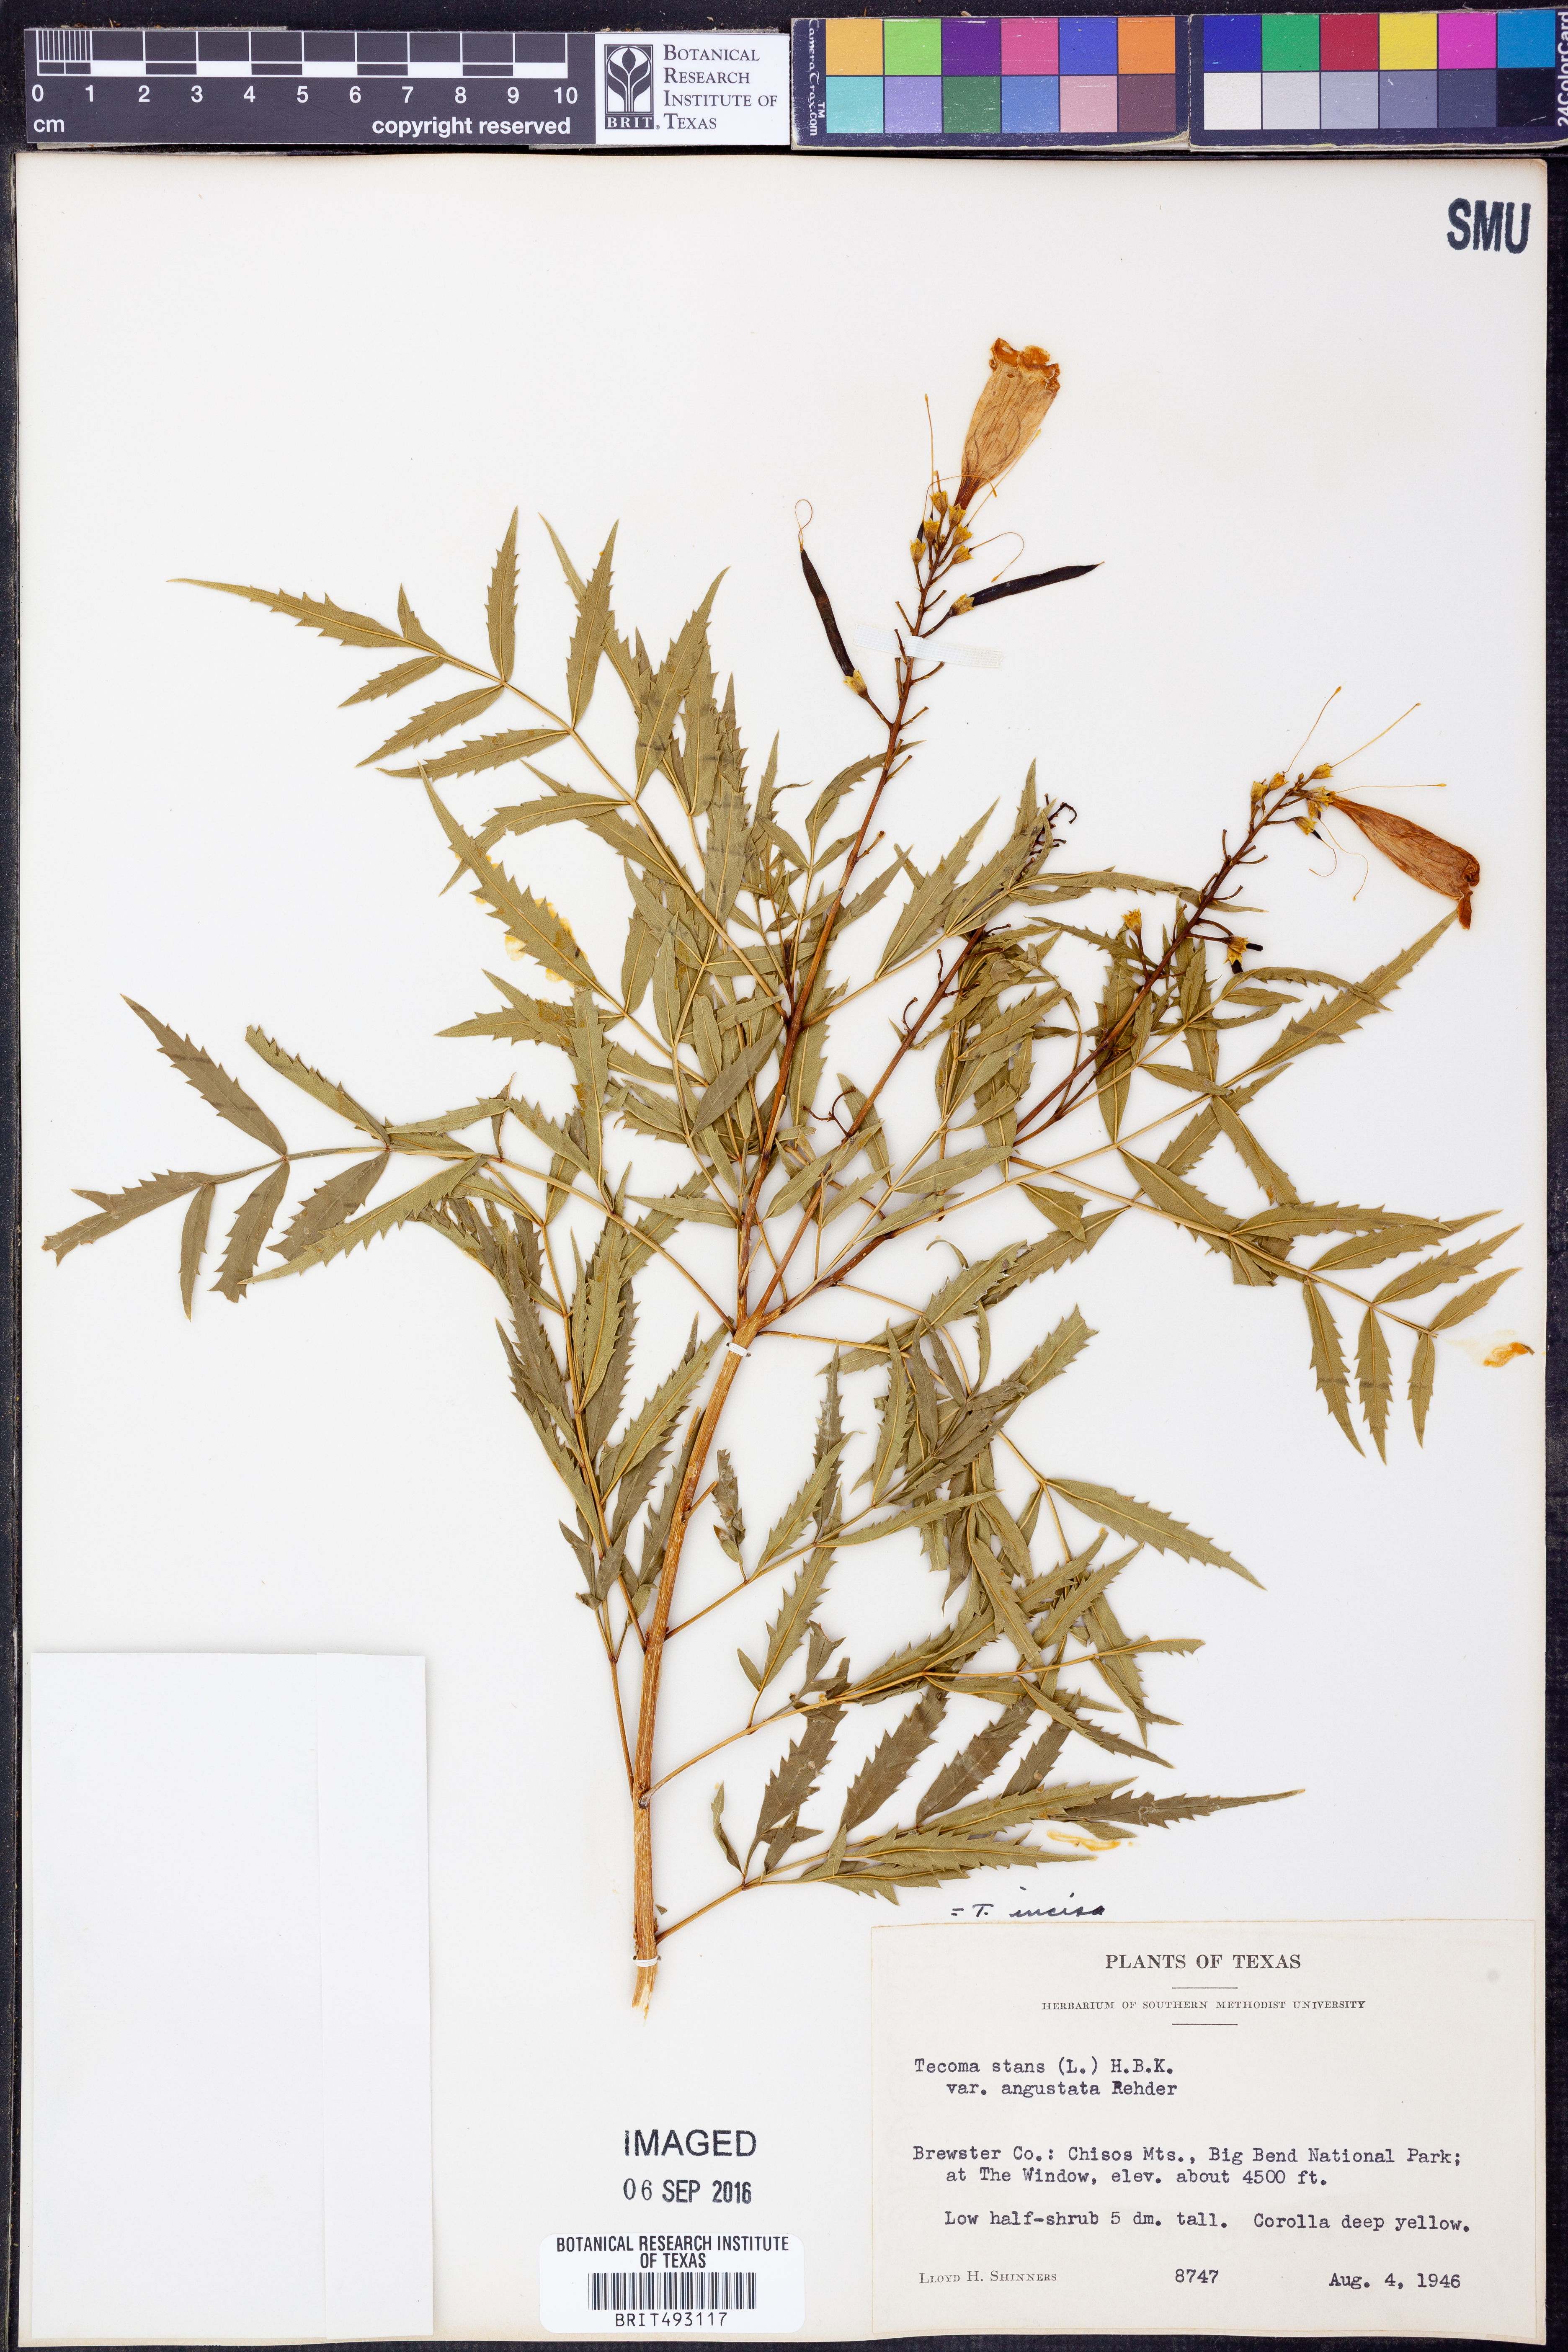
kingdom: Plantae
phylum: Tracheophyta
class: Magnoliopsida
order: Lamiales
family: Bignoniaceae
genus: Tecoma
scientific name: Tecoma stans
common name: Yellow trumpetbush
